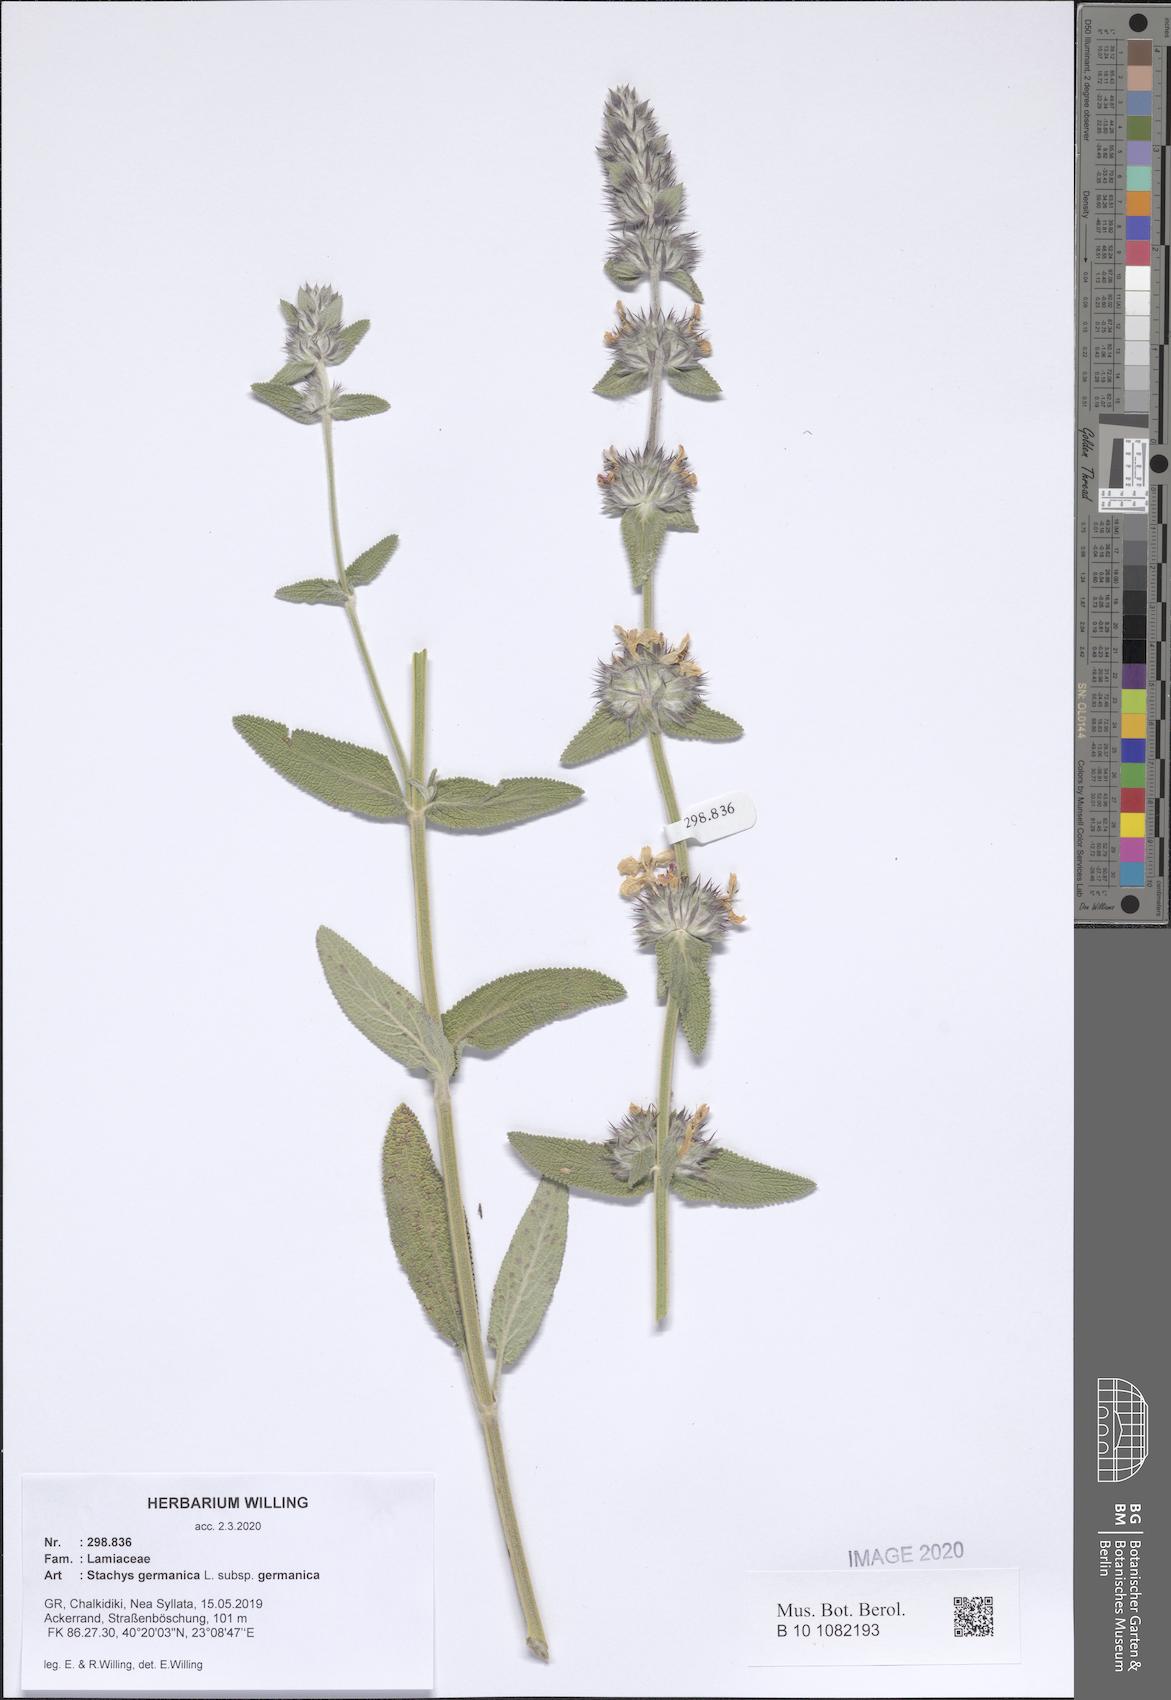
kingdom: Plantae
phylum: Tracheophyta
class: Magnoliopsida
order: Lamiales
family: Lamiaceae
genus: Stachys
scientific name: Stachys germanica
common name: Downy woundwort
